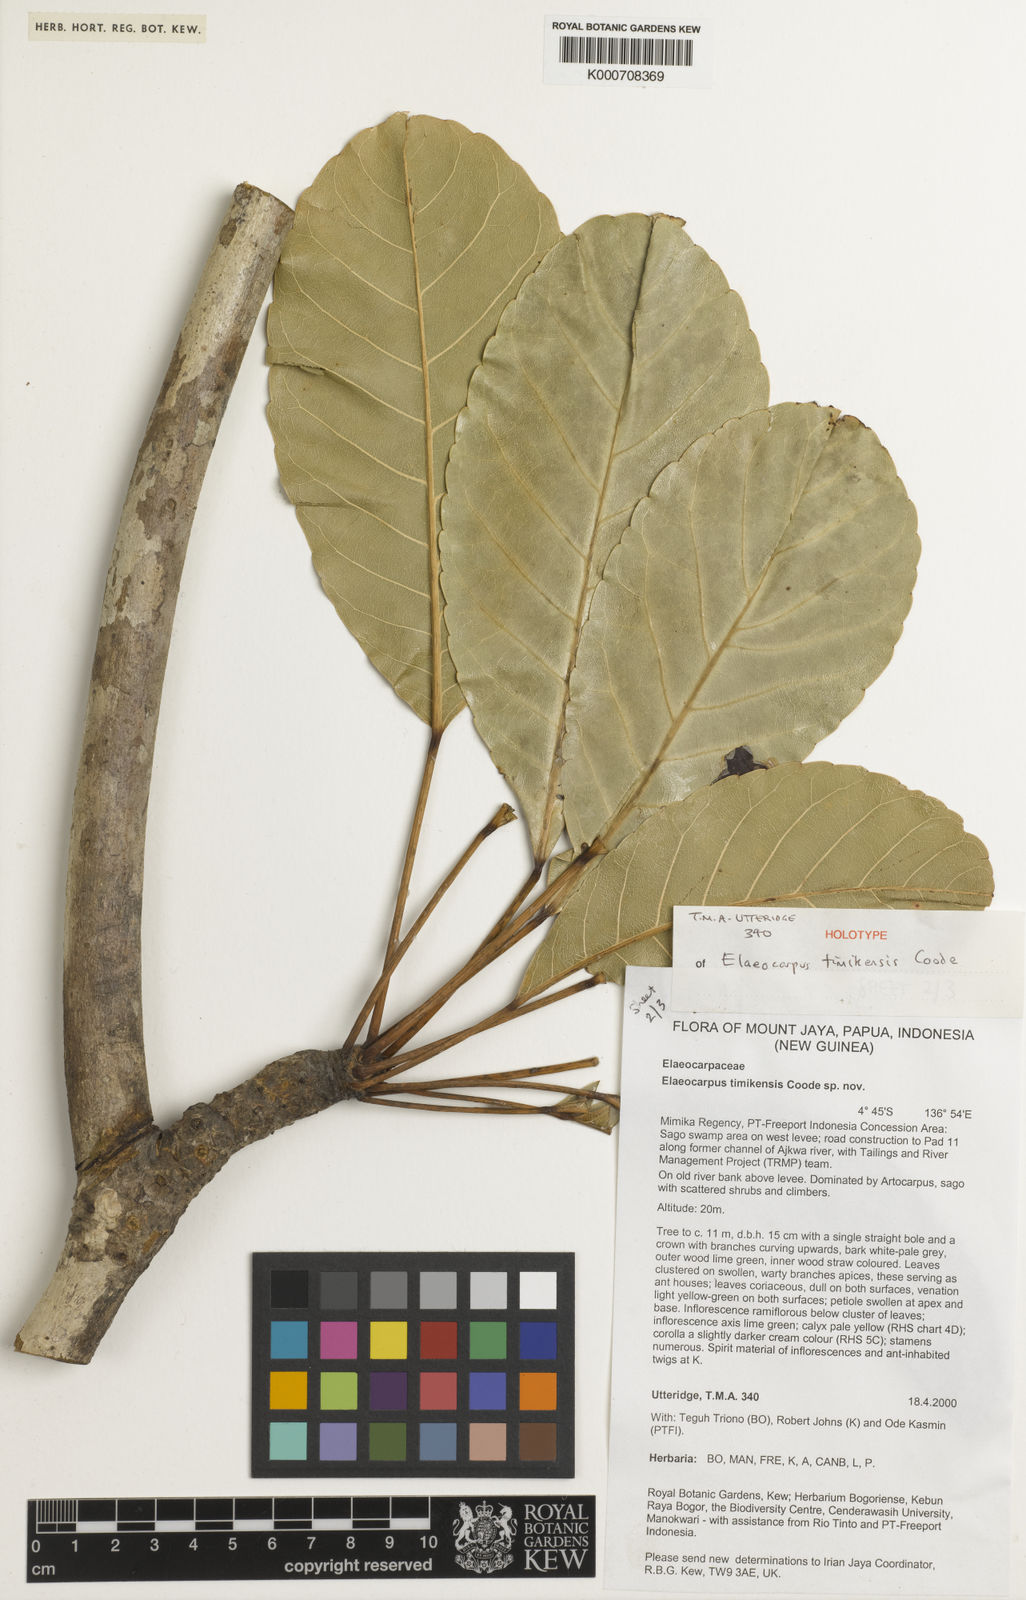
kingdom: Plantae
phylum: Tracheophyta
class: Magnoliopsida
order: Oxalidales
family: Elaeocarpaceae
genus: Elaeocarpus
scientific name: Elaeocarpus timikensis
